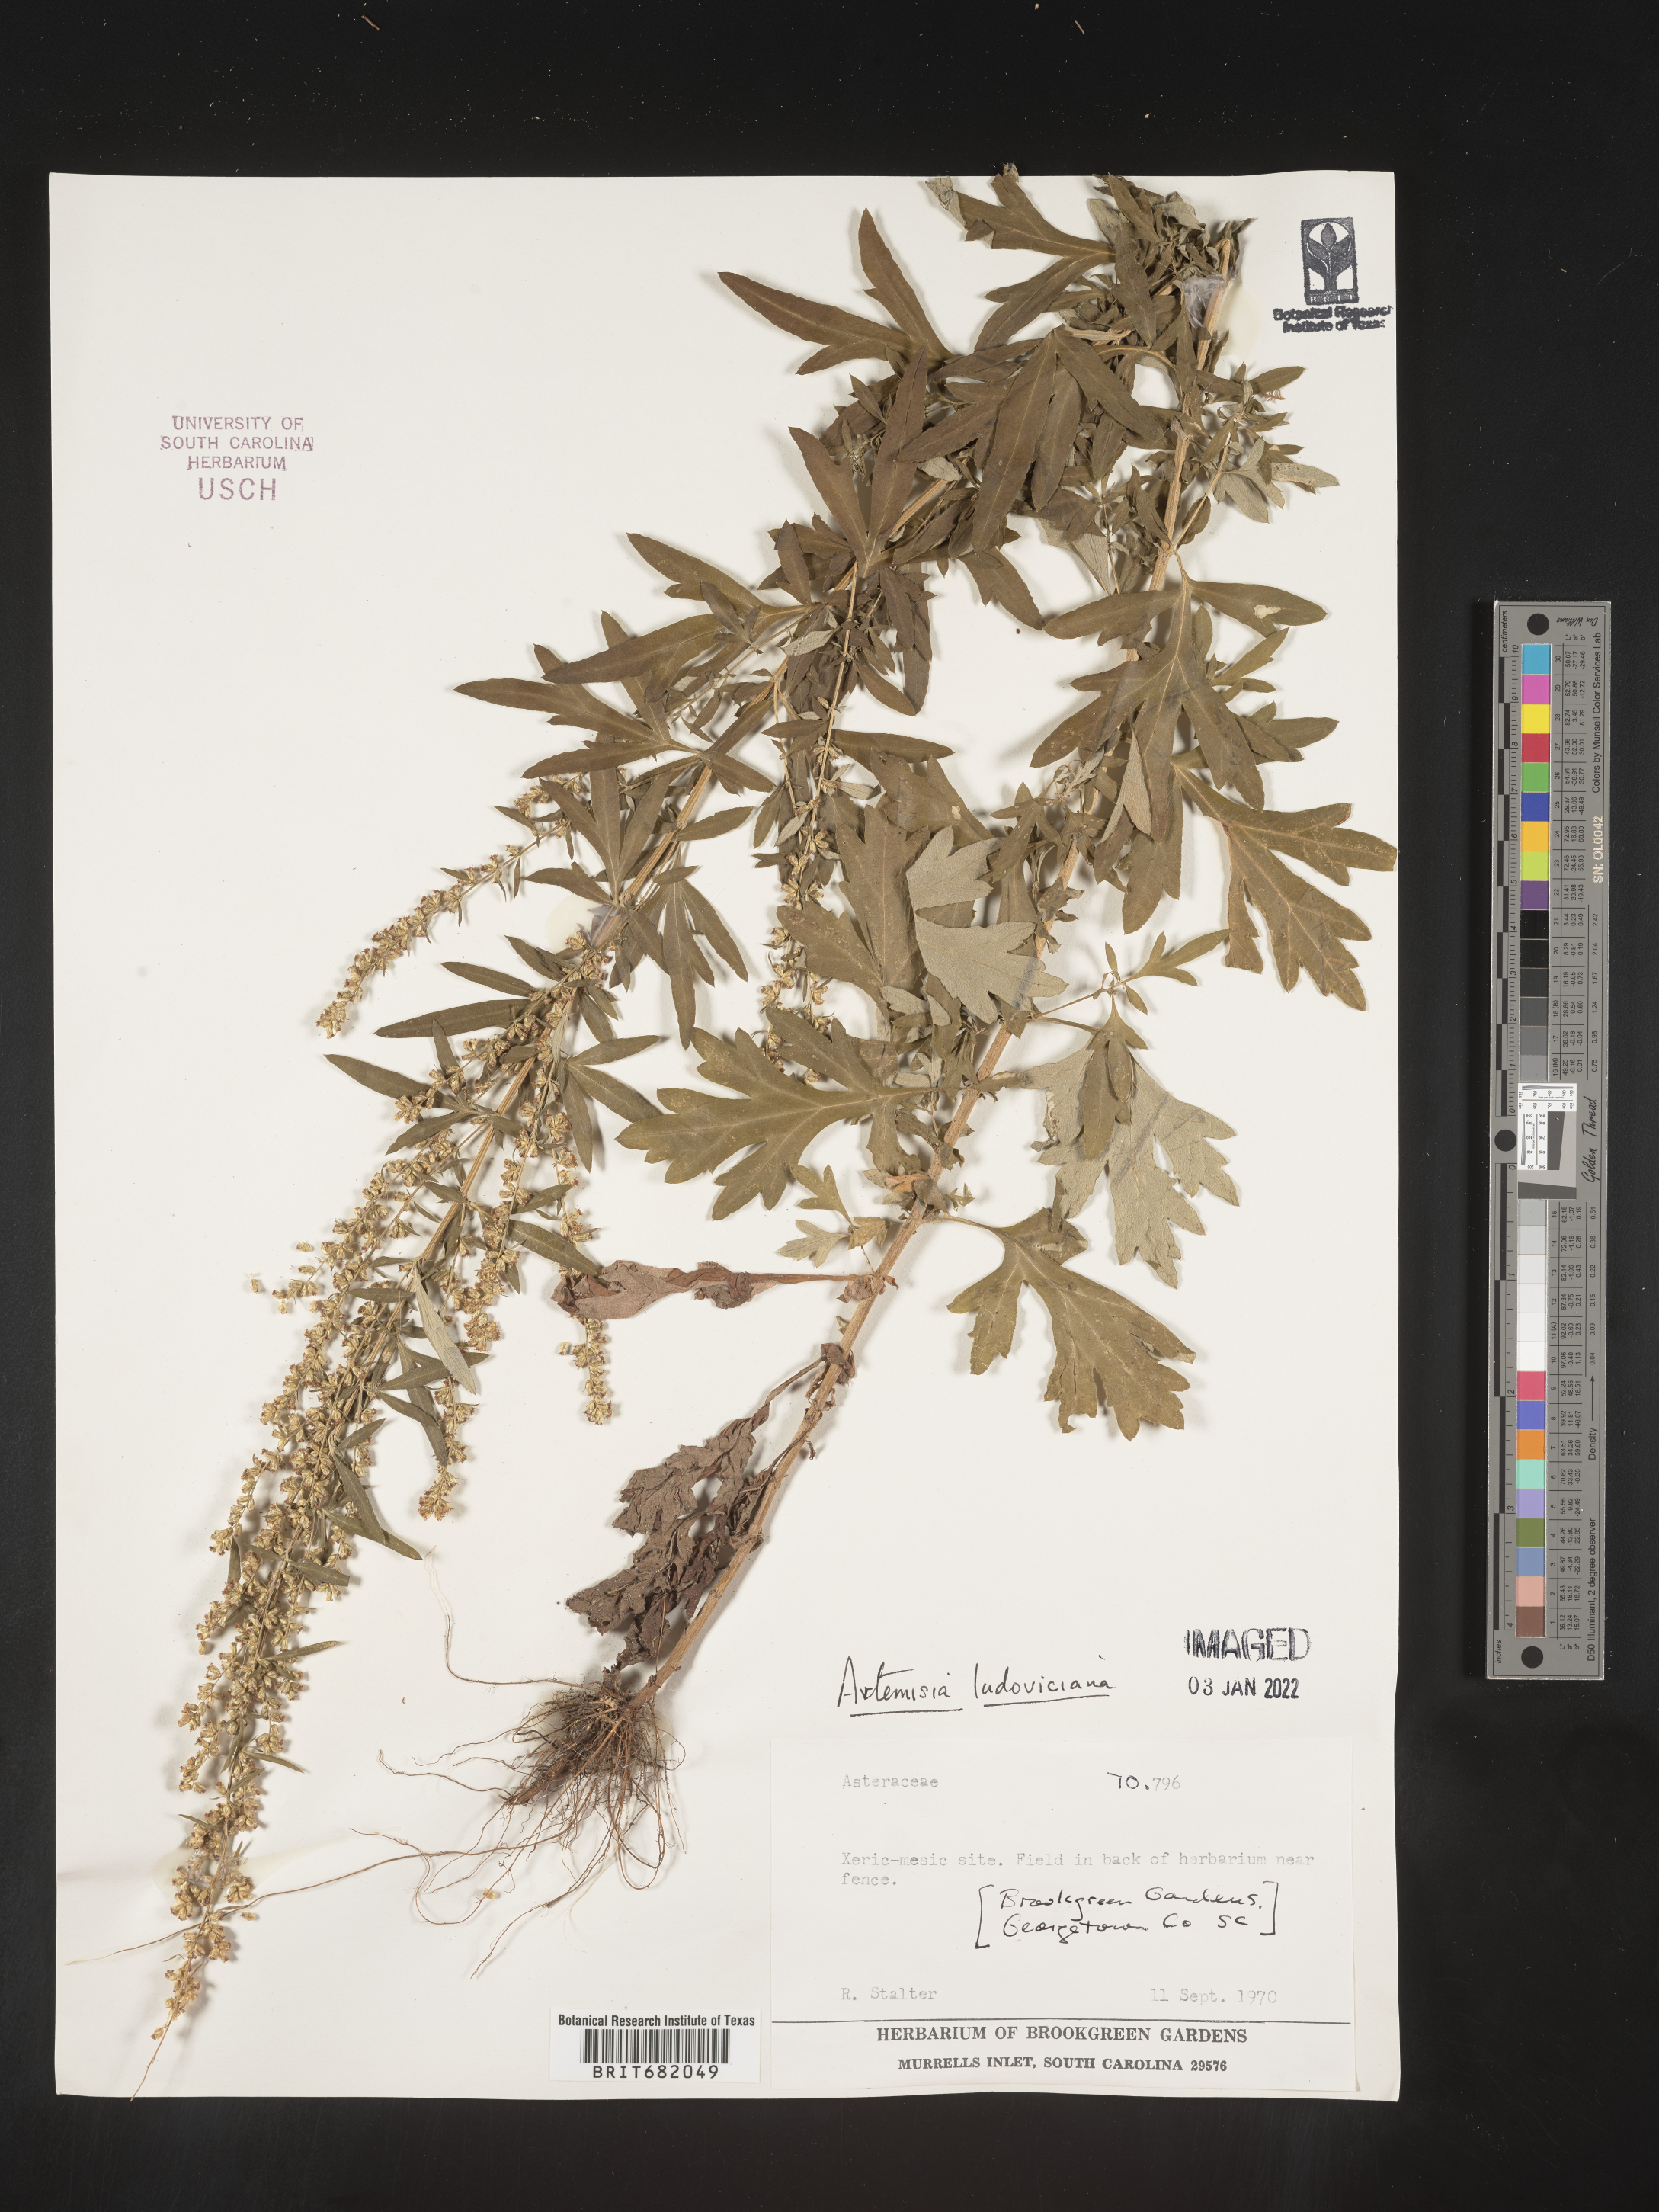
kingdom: Plantae
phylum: Tracheophyta
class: Magnoliopsida
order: Asterales
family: Asteraceae
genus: Artemisia
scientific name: Artemisia ludoviciana
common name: Western mugwort
